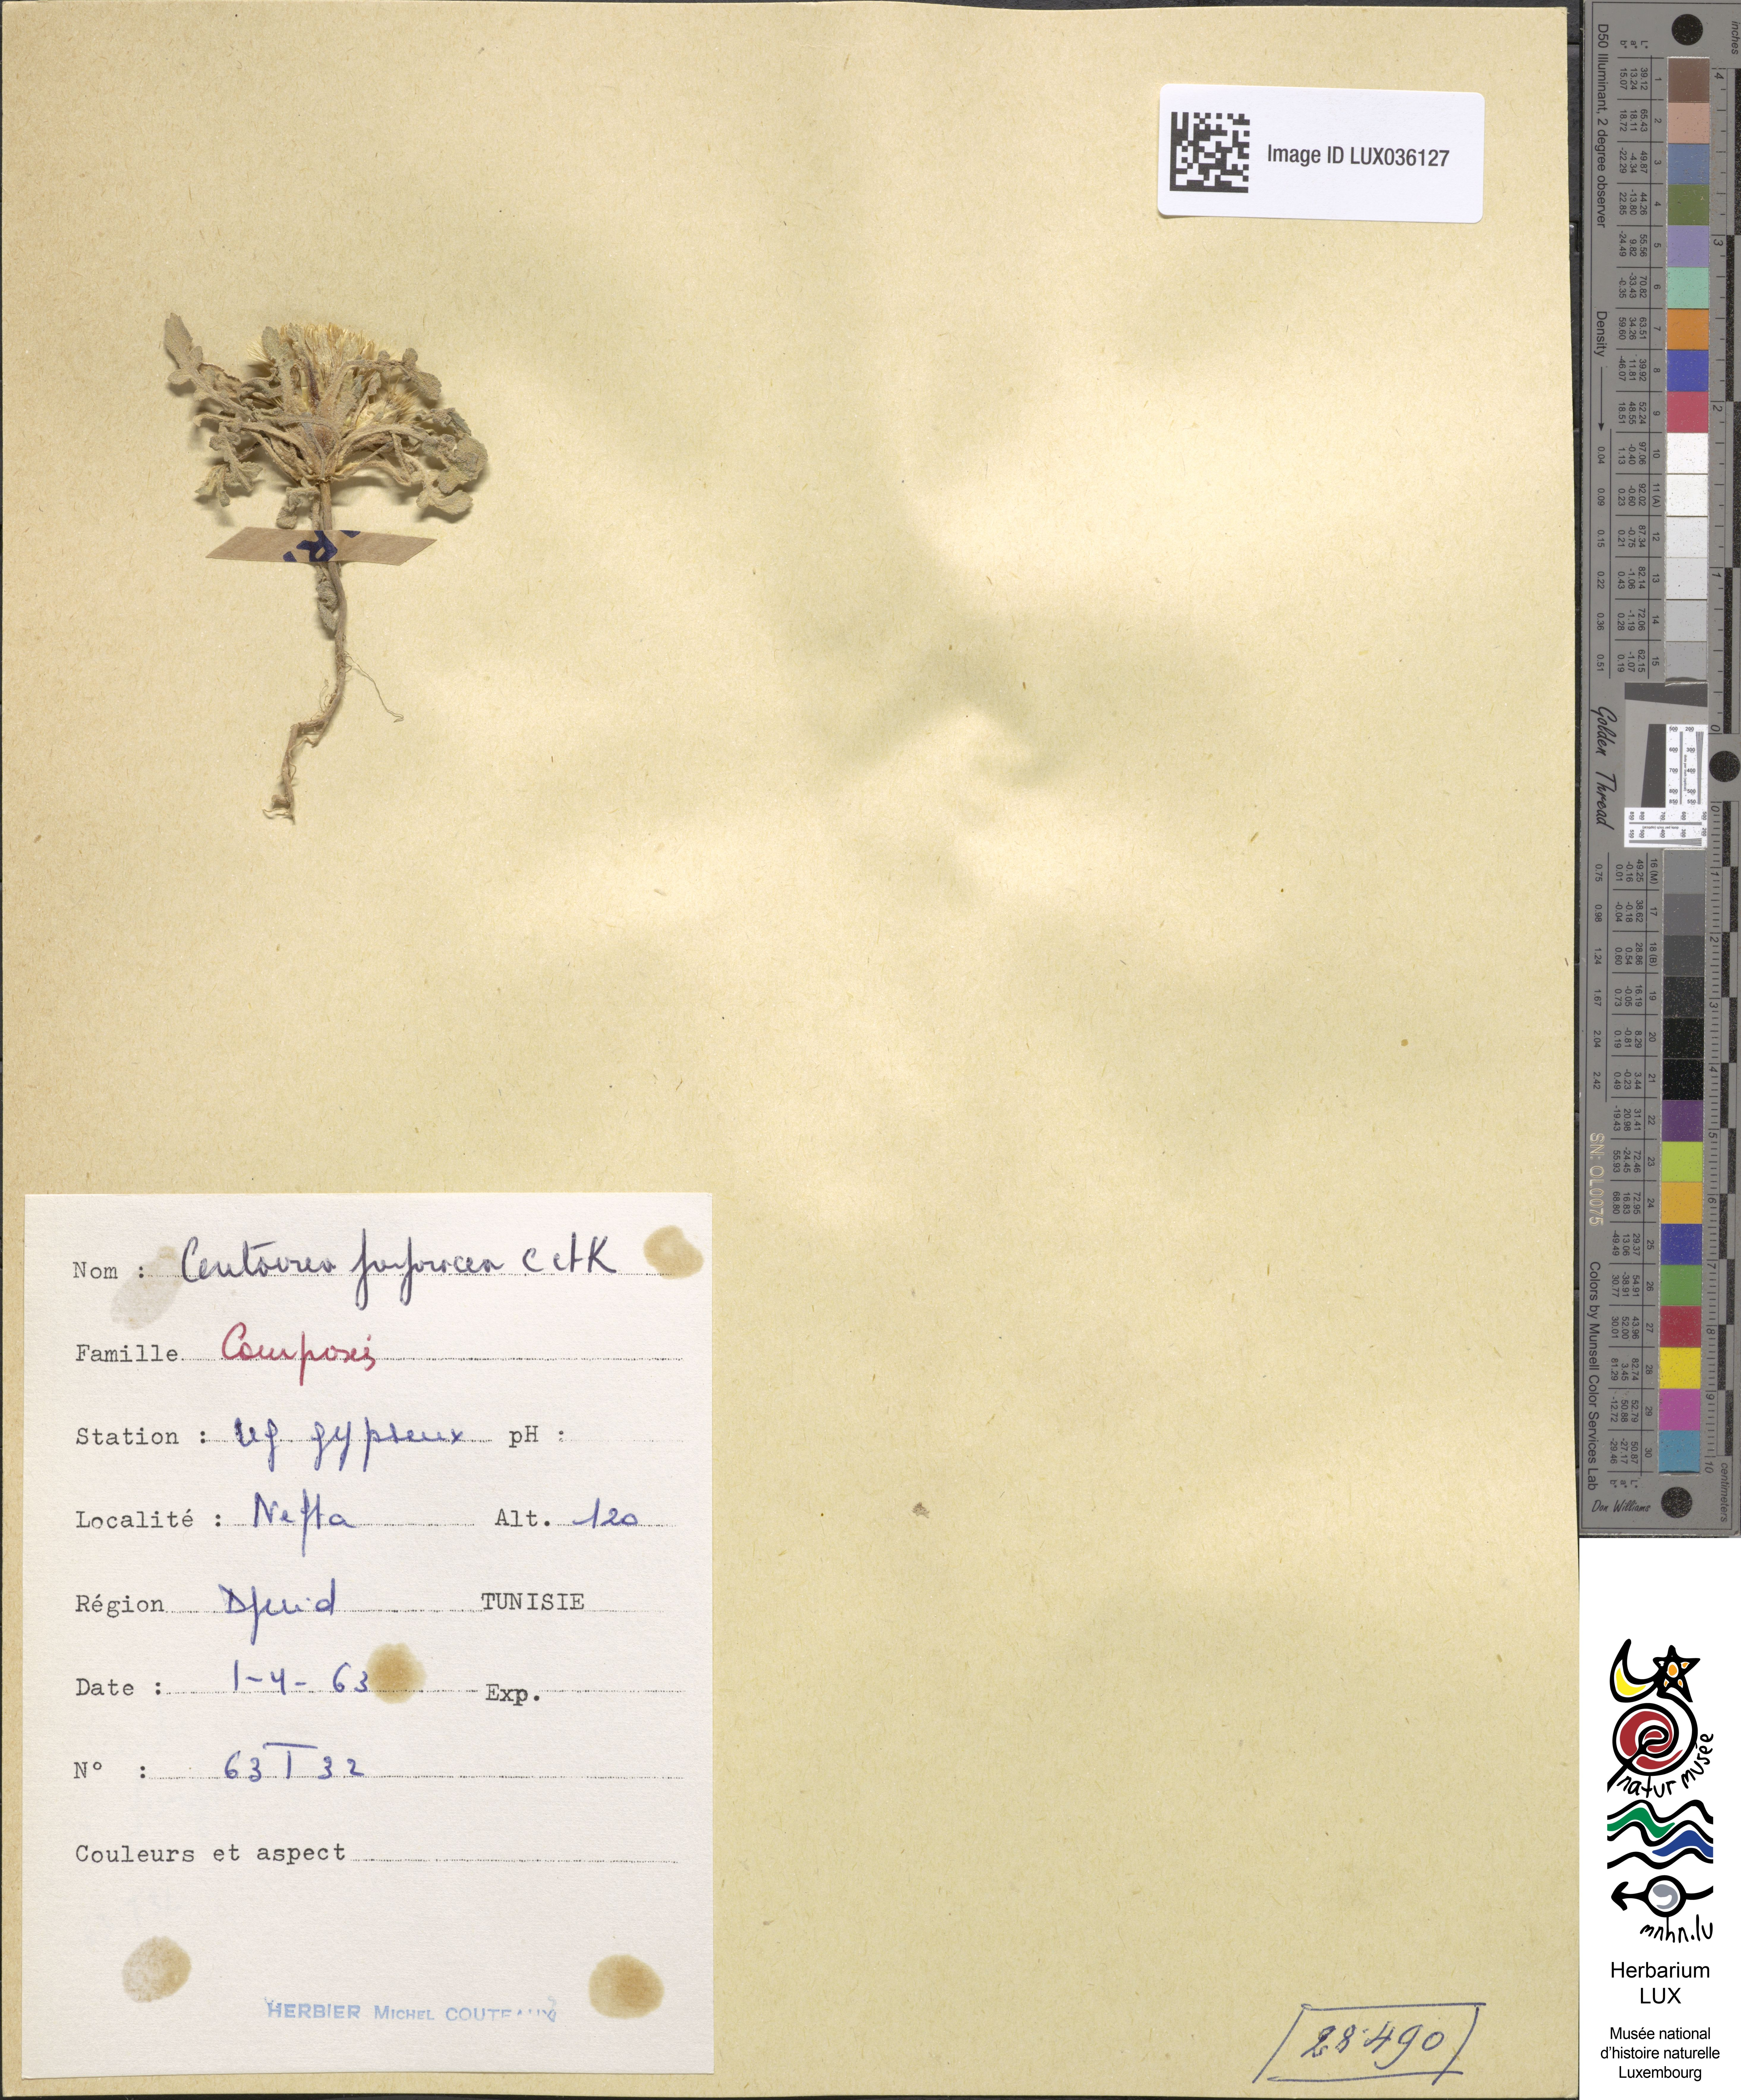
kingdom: Plantae
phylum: Tracheophyta
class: Magnoliopsida
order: Asterales
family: Asteraceae
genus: Centaurea
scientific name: Centaurea purpurea
